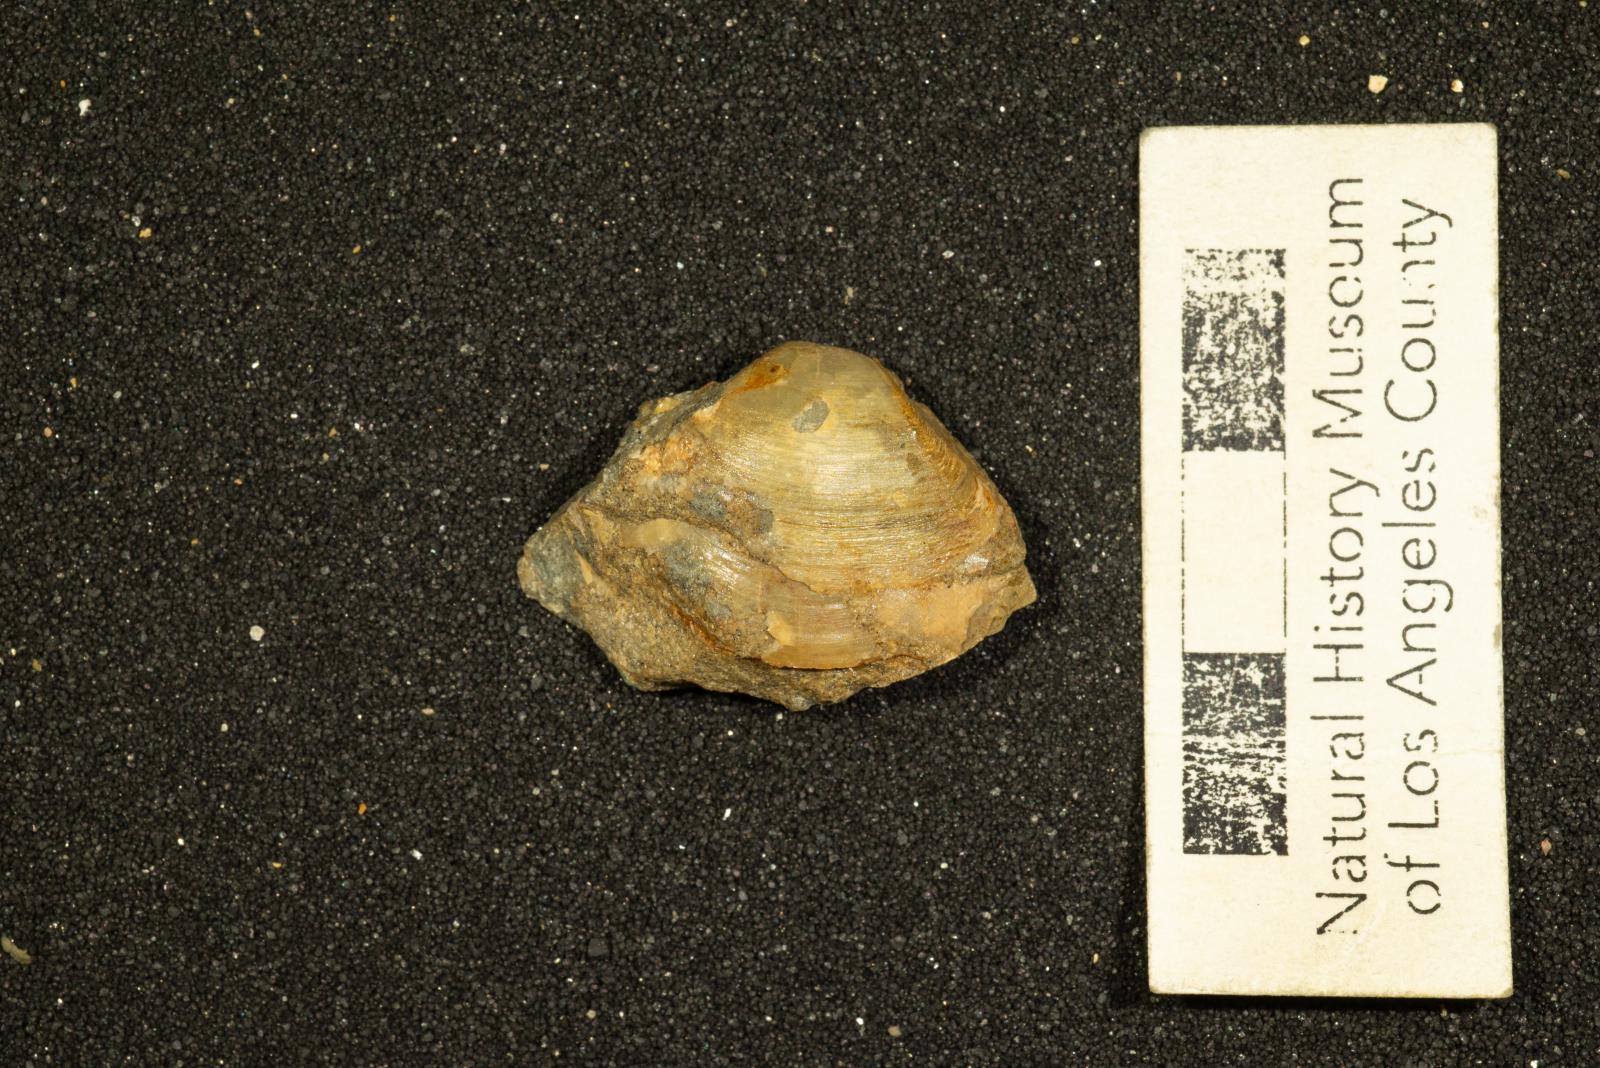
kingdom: Animalia
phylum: Mollusca
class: Bivalvia
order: Venerida
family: Mactridae
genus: Cymbophora
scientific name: Cymbophora ashburnerii
